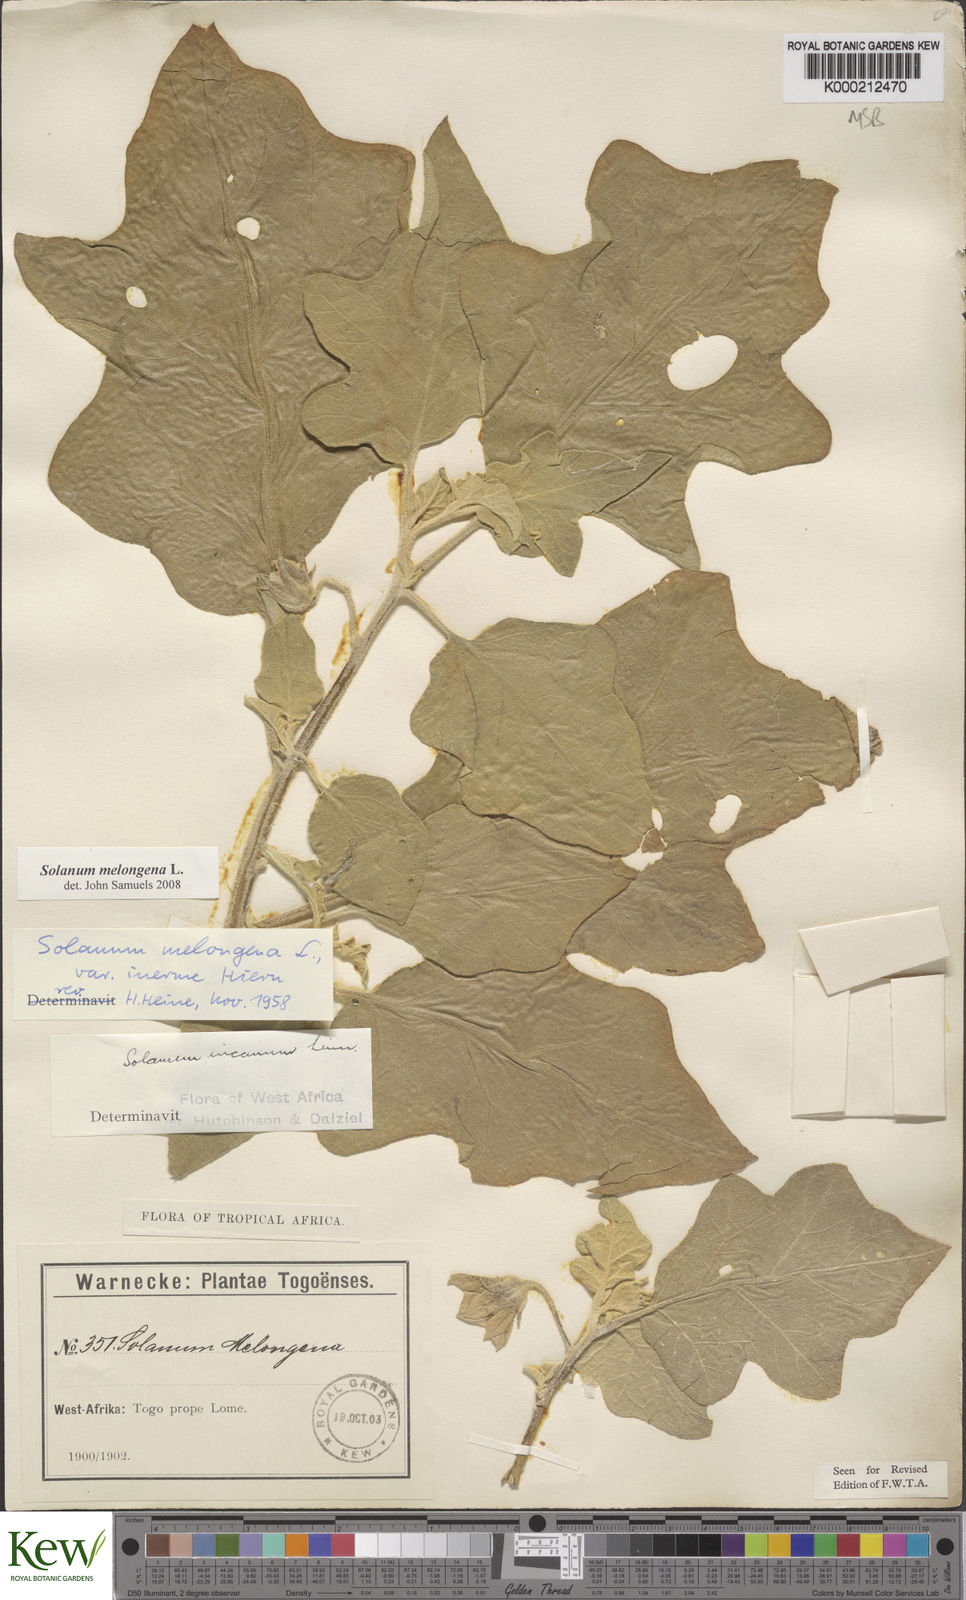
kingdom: Plantae
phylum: Tracheophyta
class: Magnoliopsida
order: Solanales
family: Solanaceae
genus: Solanum
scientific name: Solanum melongena
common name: Eggplant
